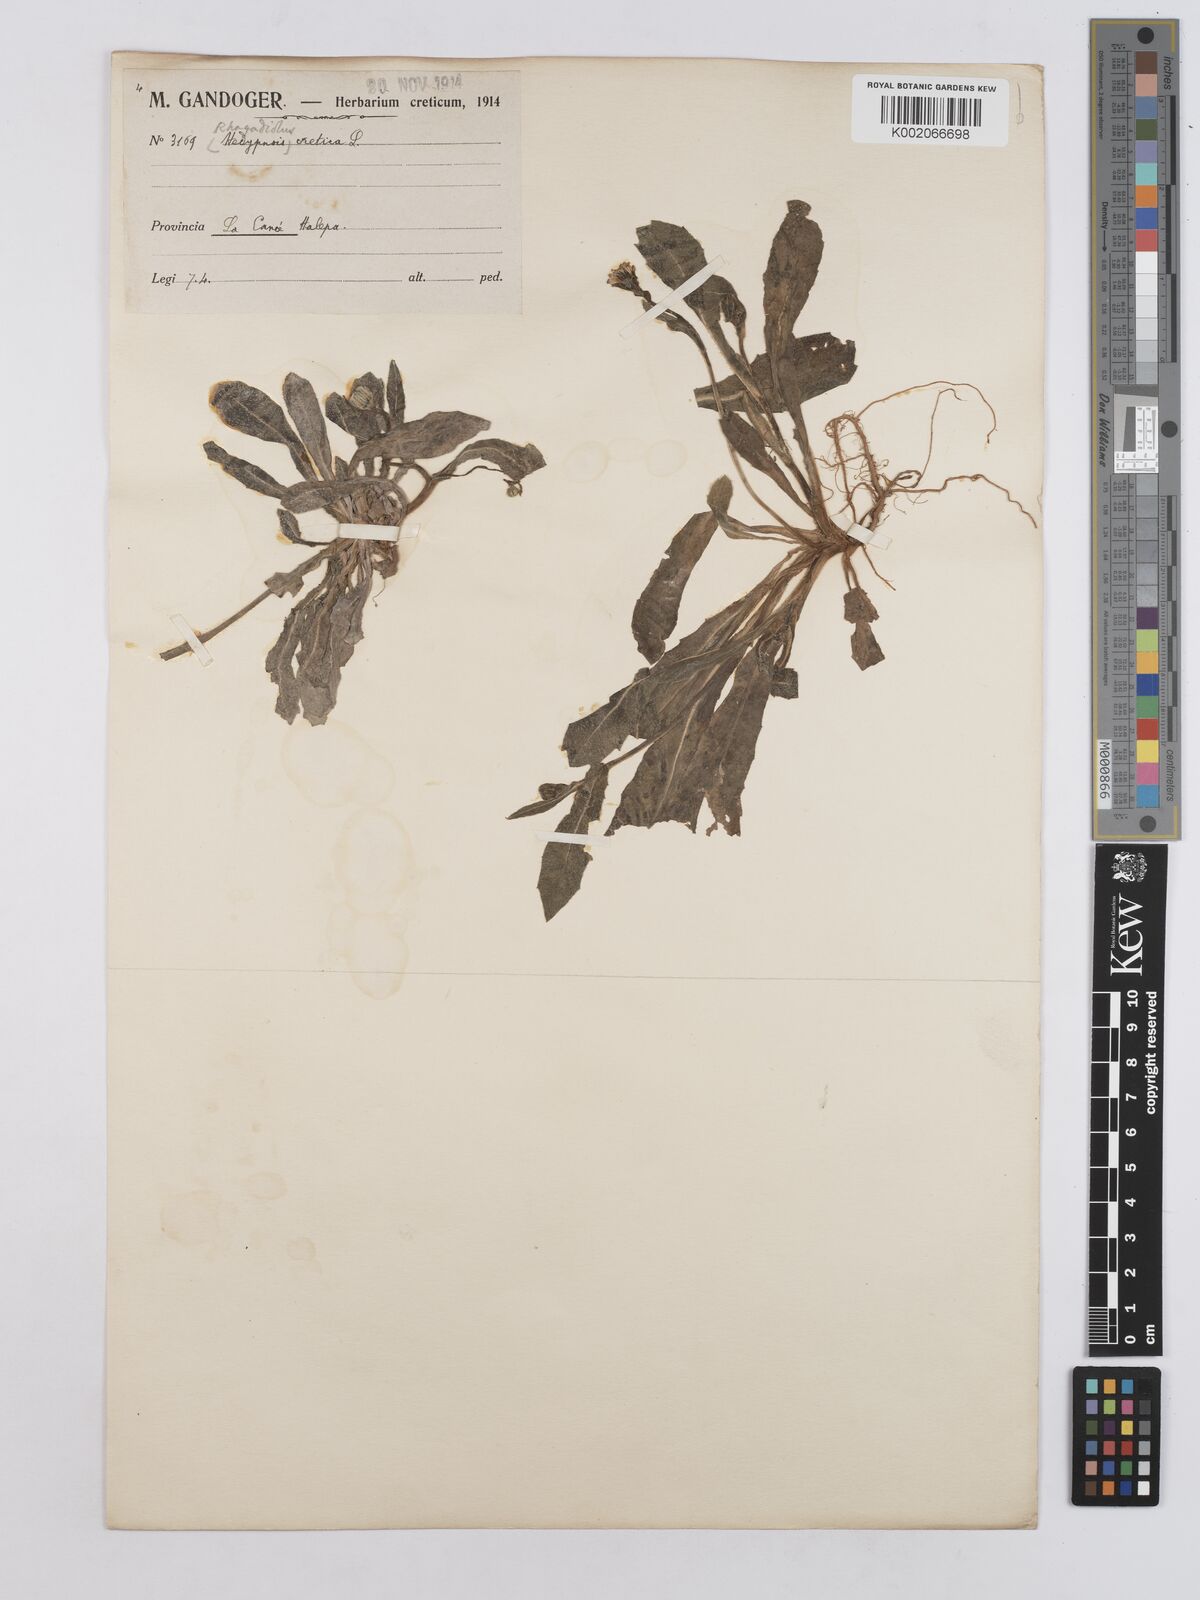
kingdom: Plantae
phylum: Tracheophyta
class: Magnoliopsida
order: Asterales
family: Asteraceae
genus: Hedypnois
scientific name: Hedypnois rhagadioloides
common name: Cretan weed
